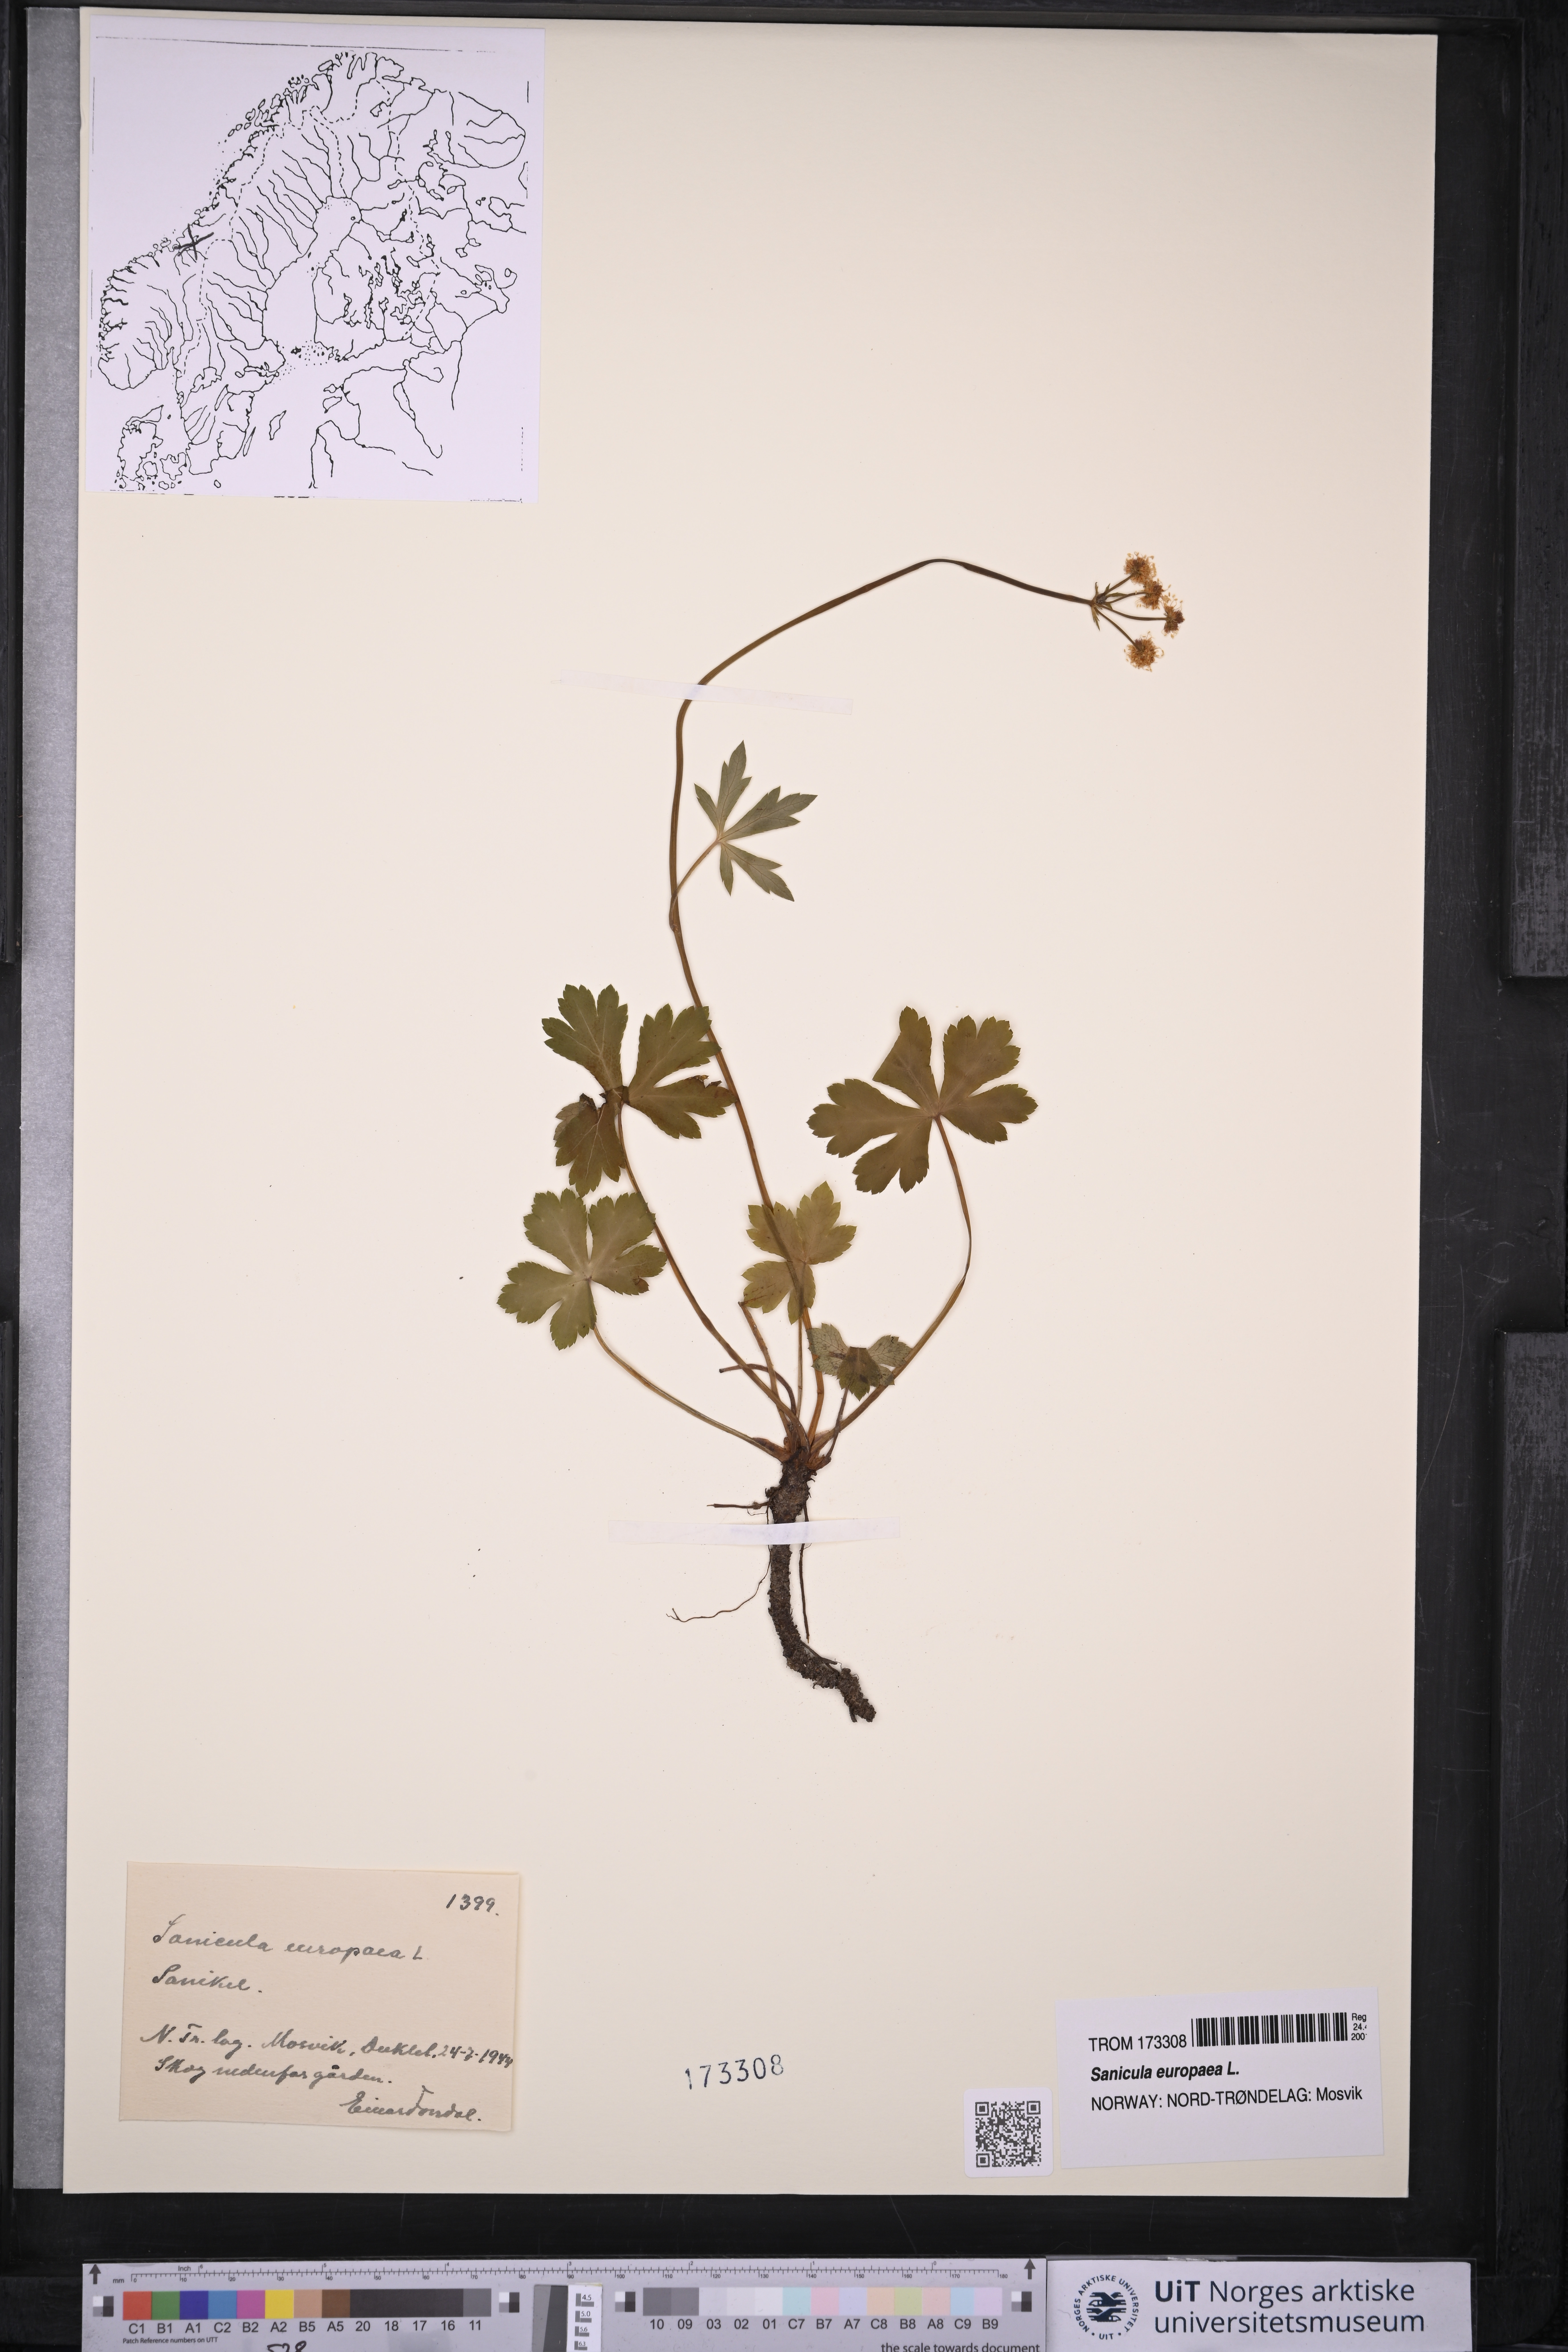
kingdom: Plantae
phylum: Tracheophyta
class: Magnoliopsida
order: Apiales
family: Apiaceae
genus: Sanicula
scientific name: Sanicula europaea
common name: Sanicle
